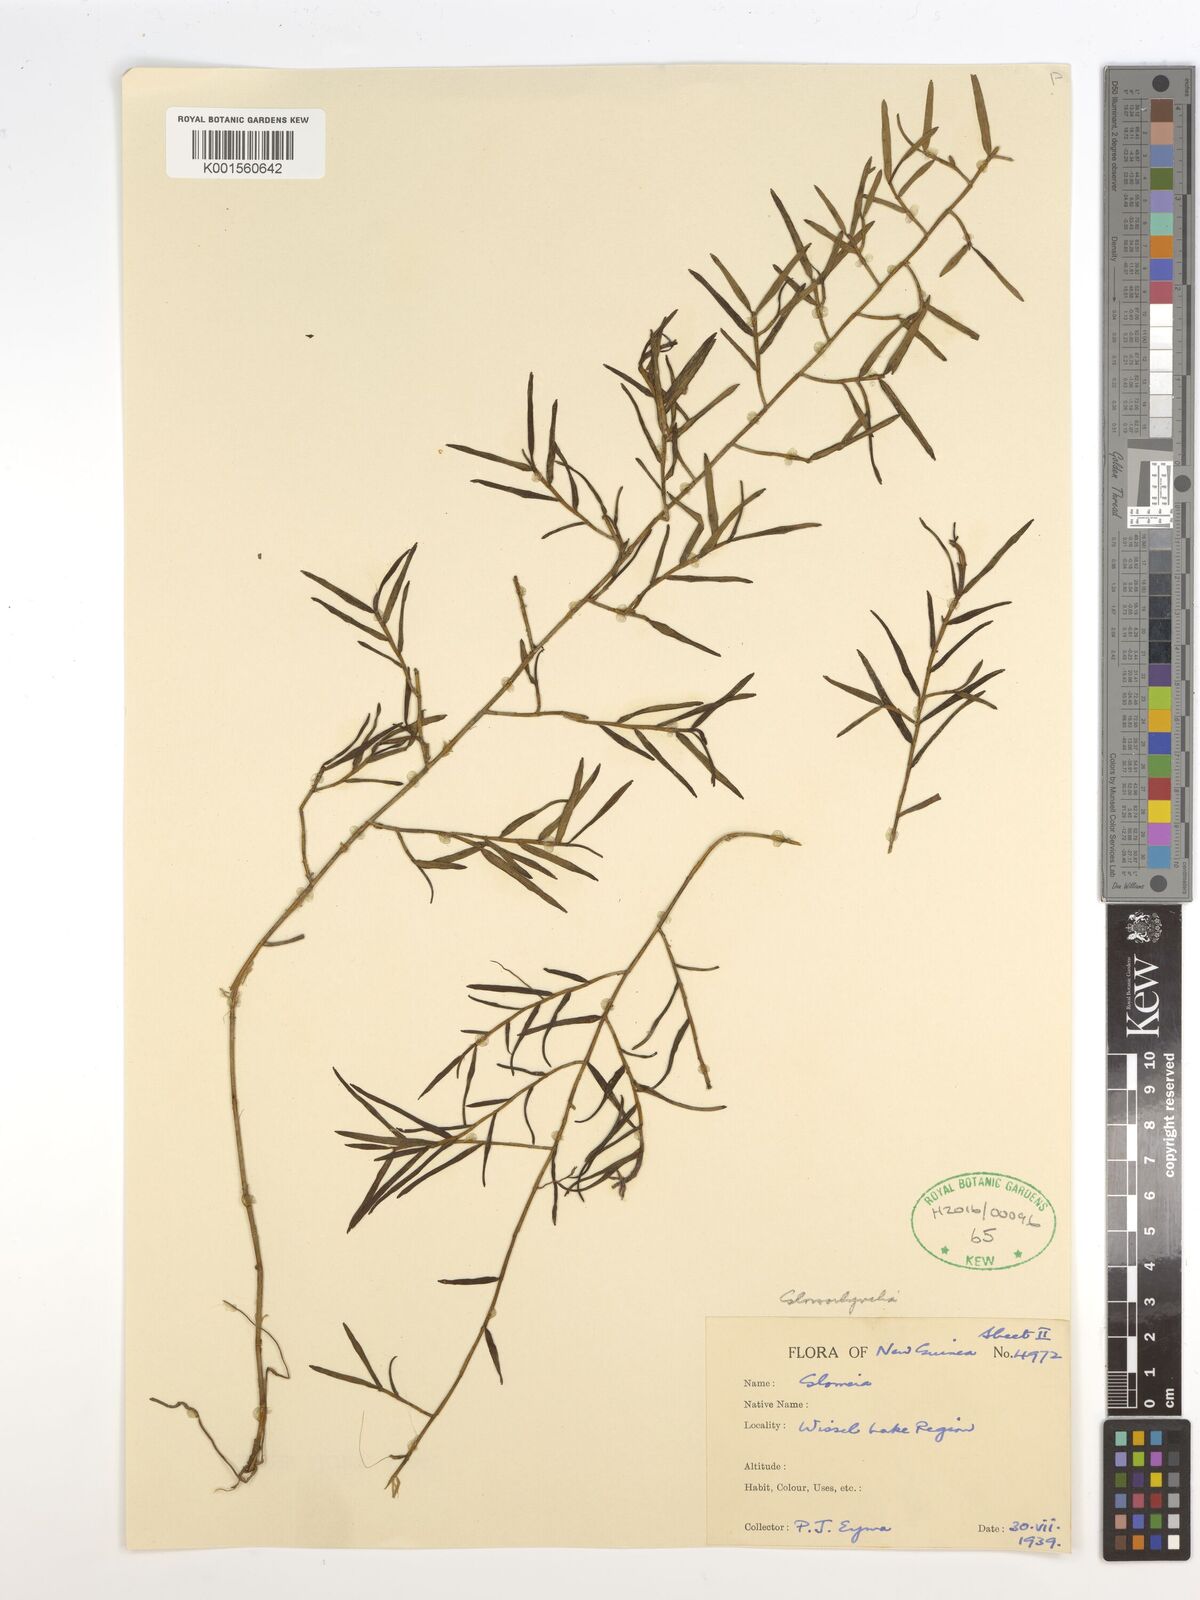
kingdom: Plantae
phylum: Tracheophyta
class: Liliopsida
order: Asparagales
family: Orchidaceae
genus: Glomera
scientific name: Glomera
